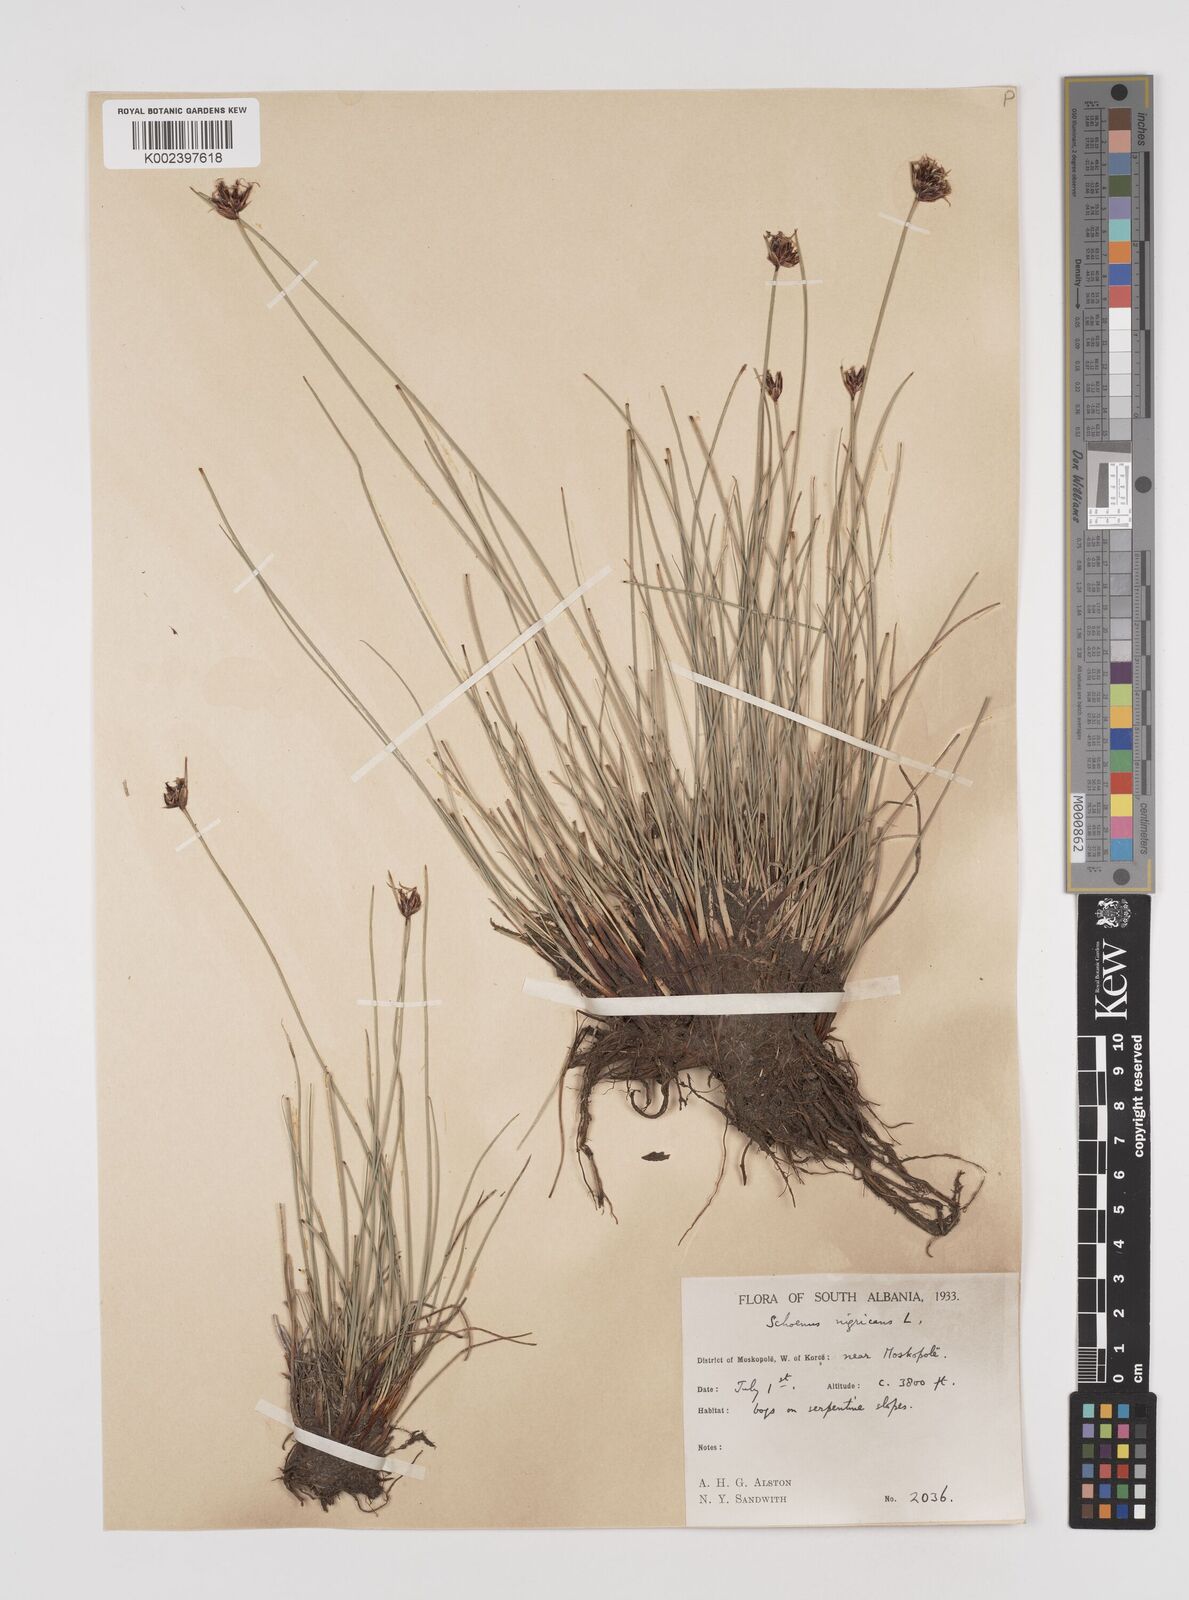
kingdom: Plantae
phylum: Tracheophyta
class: Liliopsida
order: Poales
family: Cyperaceae
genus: Schoenus
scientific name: Schoenus nigricans
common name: Black bog-rush
